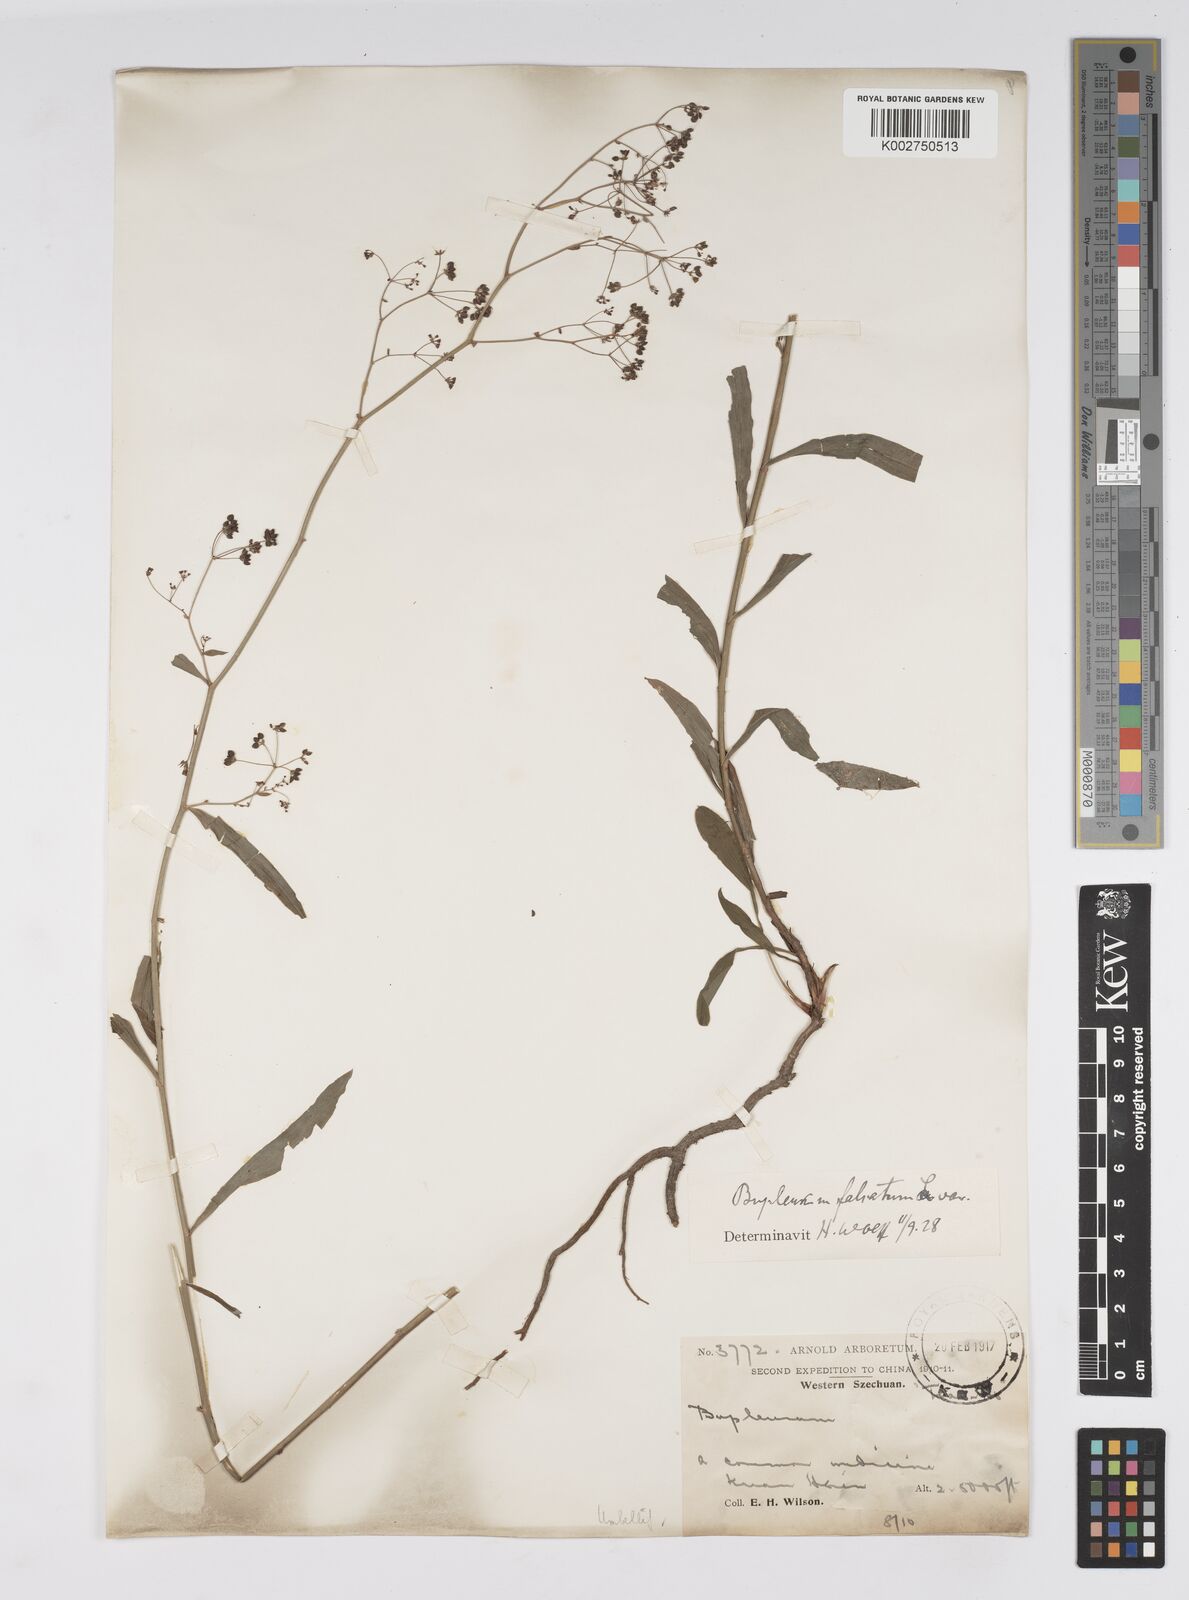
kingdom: Plantae
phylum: Tracheophyta
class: Magnoliopsida
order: Apiales
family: Apiaceae
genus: Bupleurum
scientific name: Bupleurum krylovianum
